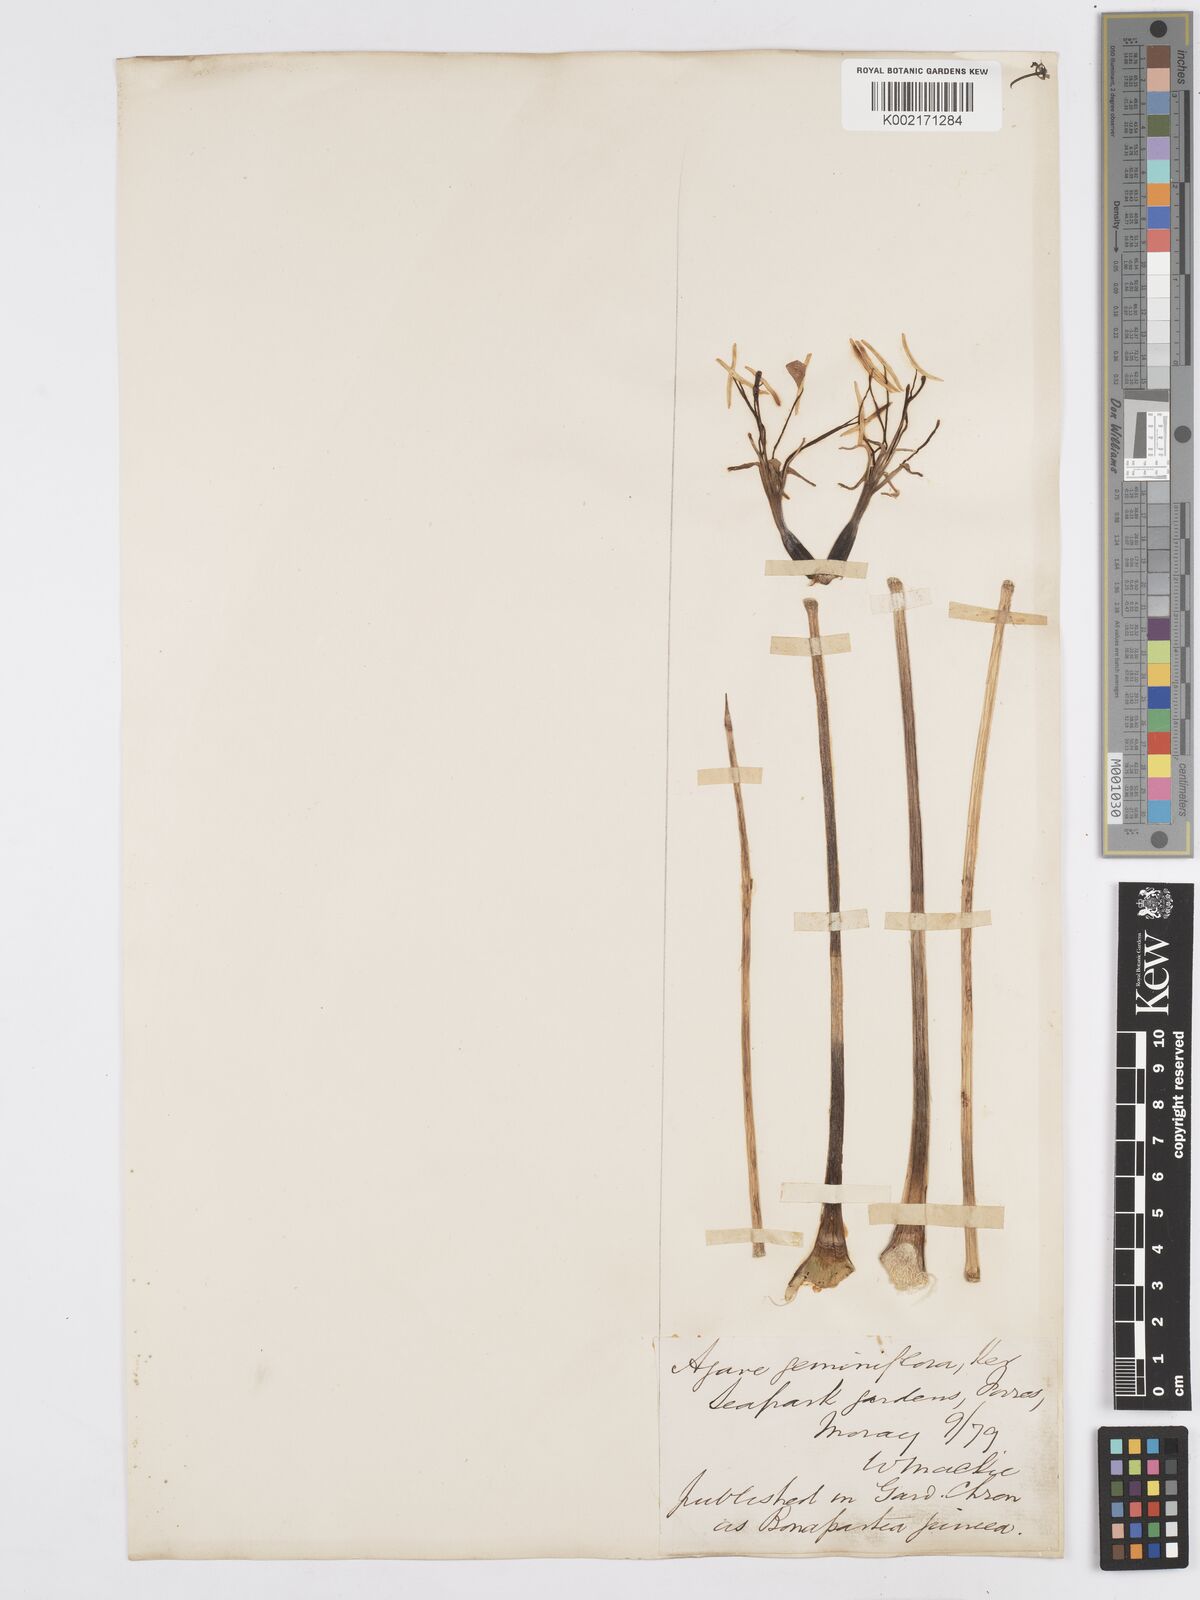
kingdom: Plantae
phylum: Tracheophyta
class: Liliopsida
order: Asparagales
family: Asparagaceae
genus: Agave
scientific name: Agave geminiflora
